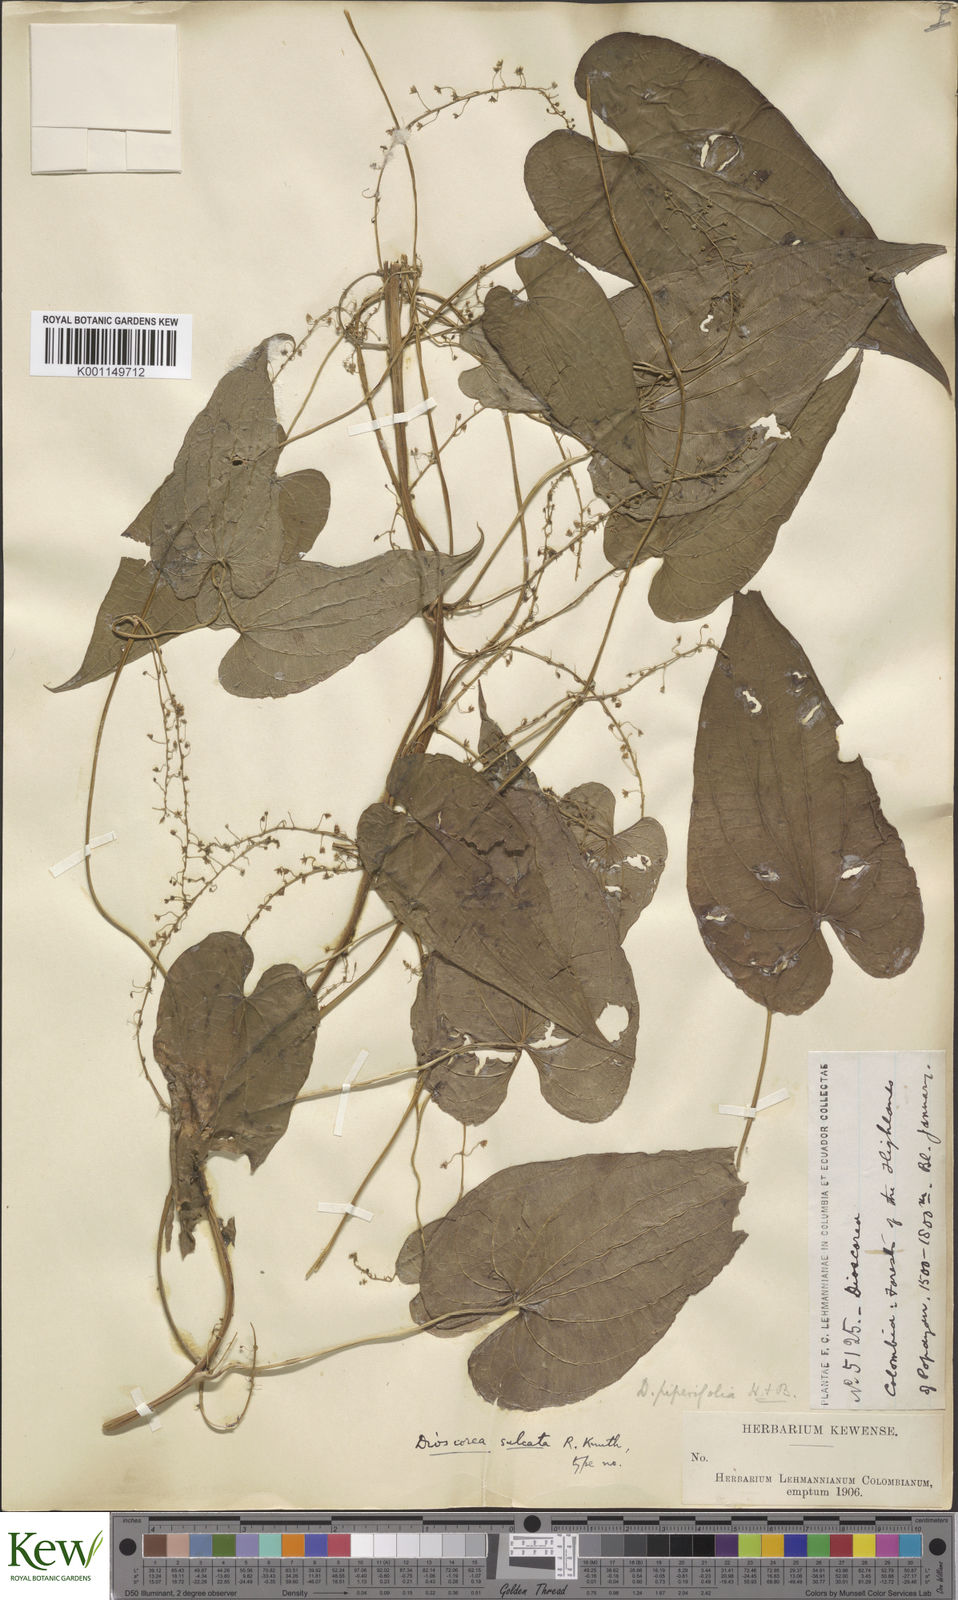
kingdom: Plantae
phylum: Tracheophyta
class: Liliopsida
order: Dioscoreales
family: Dioscoreaceae
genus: Dioscorea
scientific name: Dioscorea piperifolia
